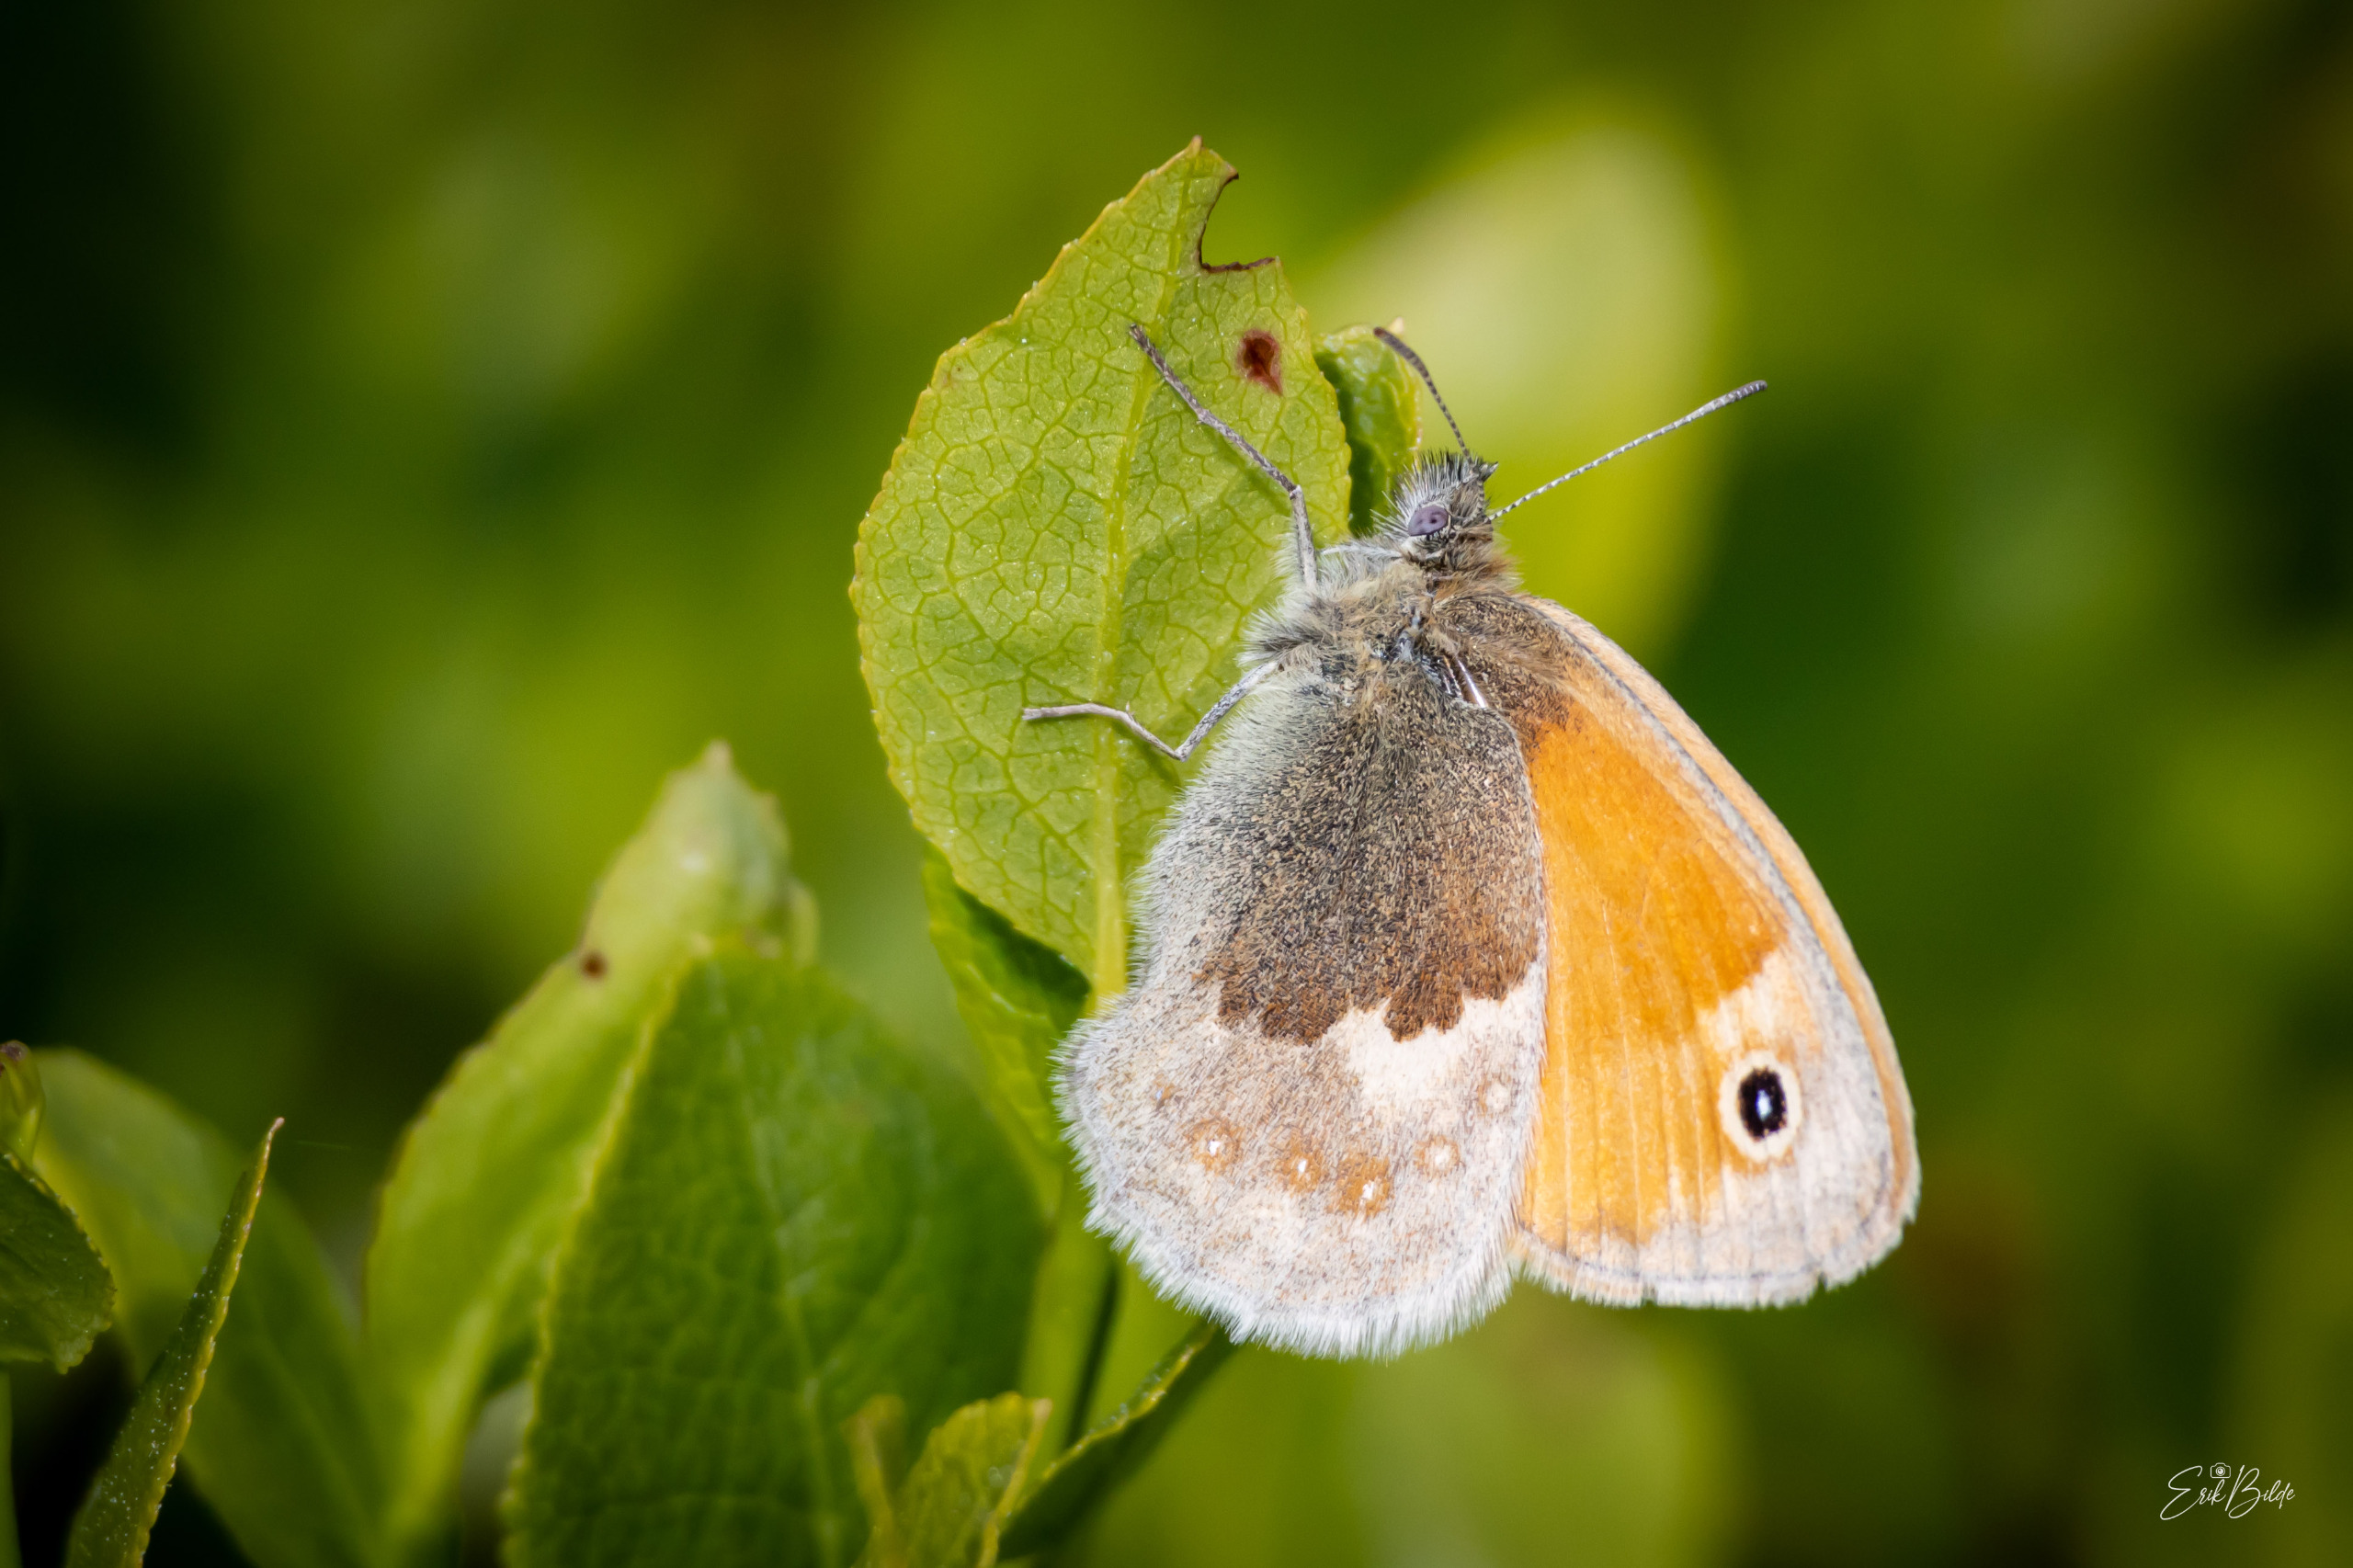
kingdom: Animalia
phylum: Arthropoda
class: Insecta
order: Lepidoptera
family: Nymphalidae
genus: Coenonympha
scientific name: Coenonympha pamphilus
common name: Okkergul randøje
